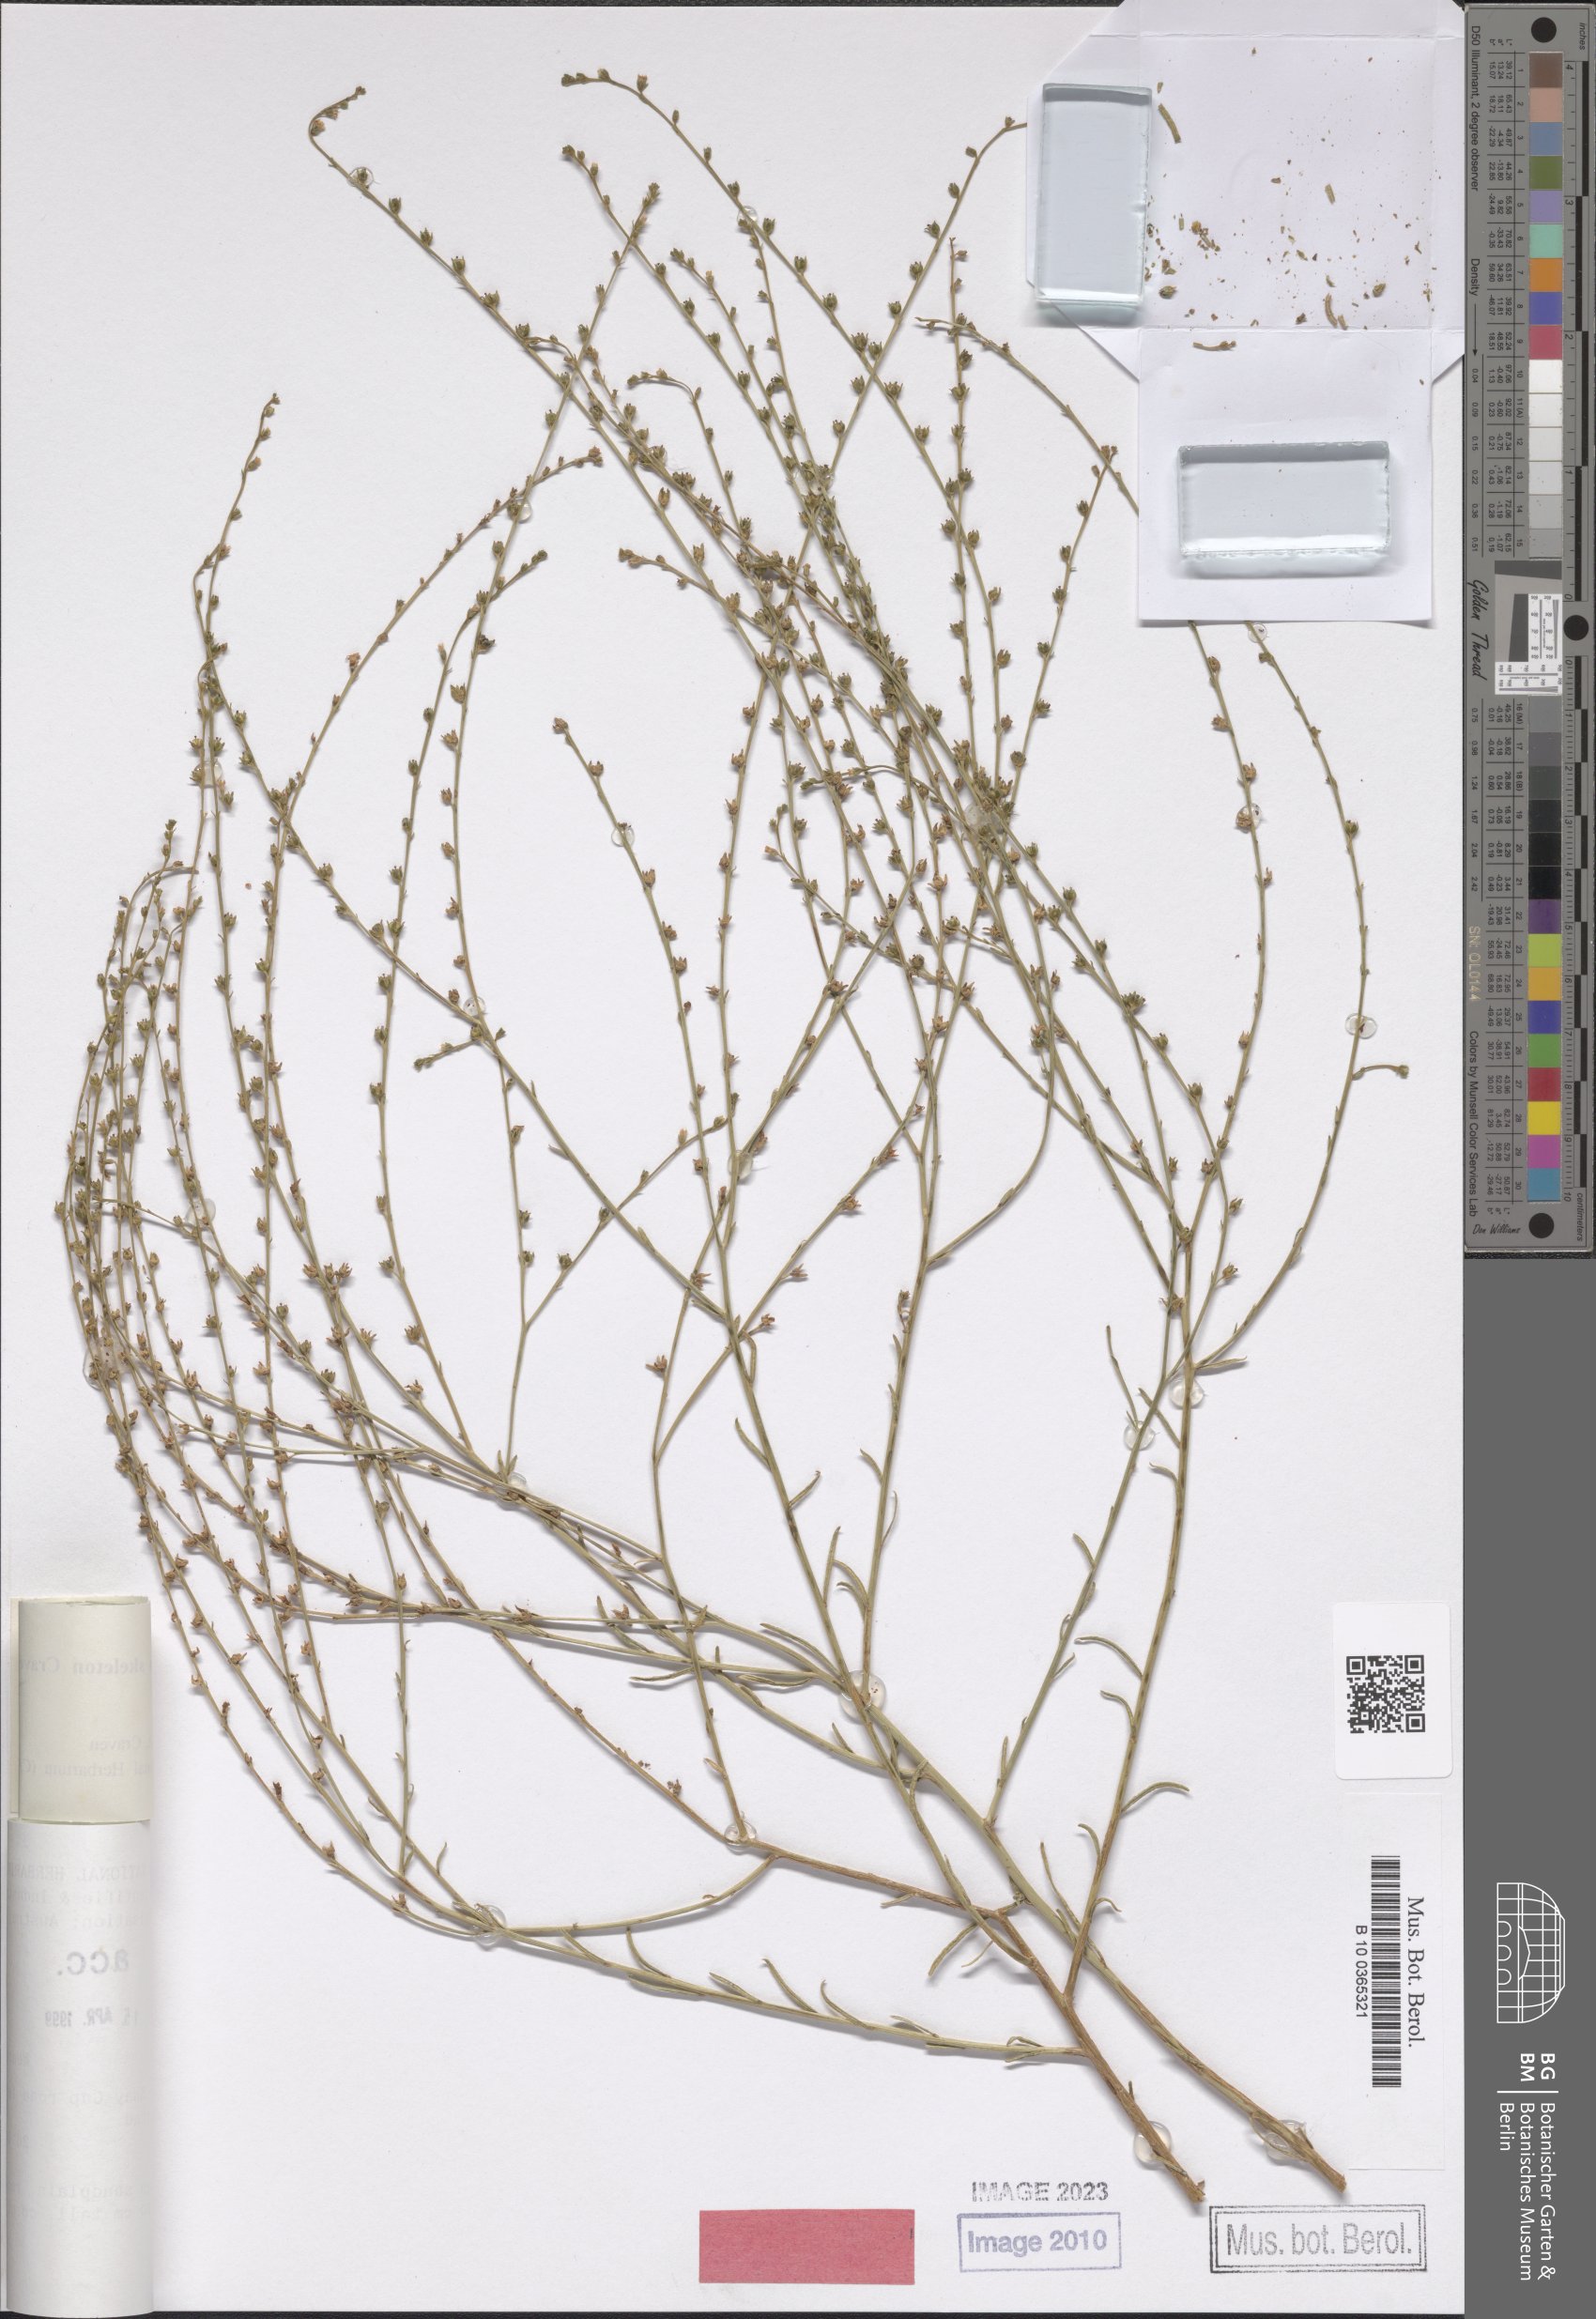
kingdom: Plantae
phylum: Tracheophyta
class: Magnoliopsida
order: Boraginales
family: Heliotropiaceae
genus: Euploca
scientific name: Euploca skeleton
